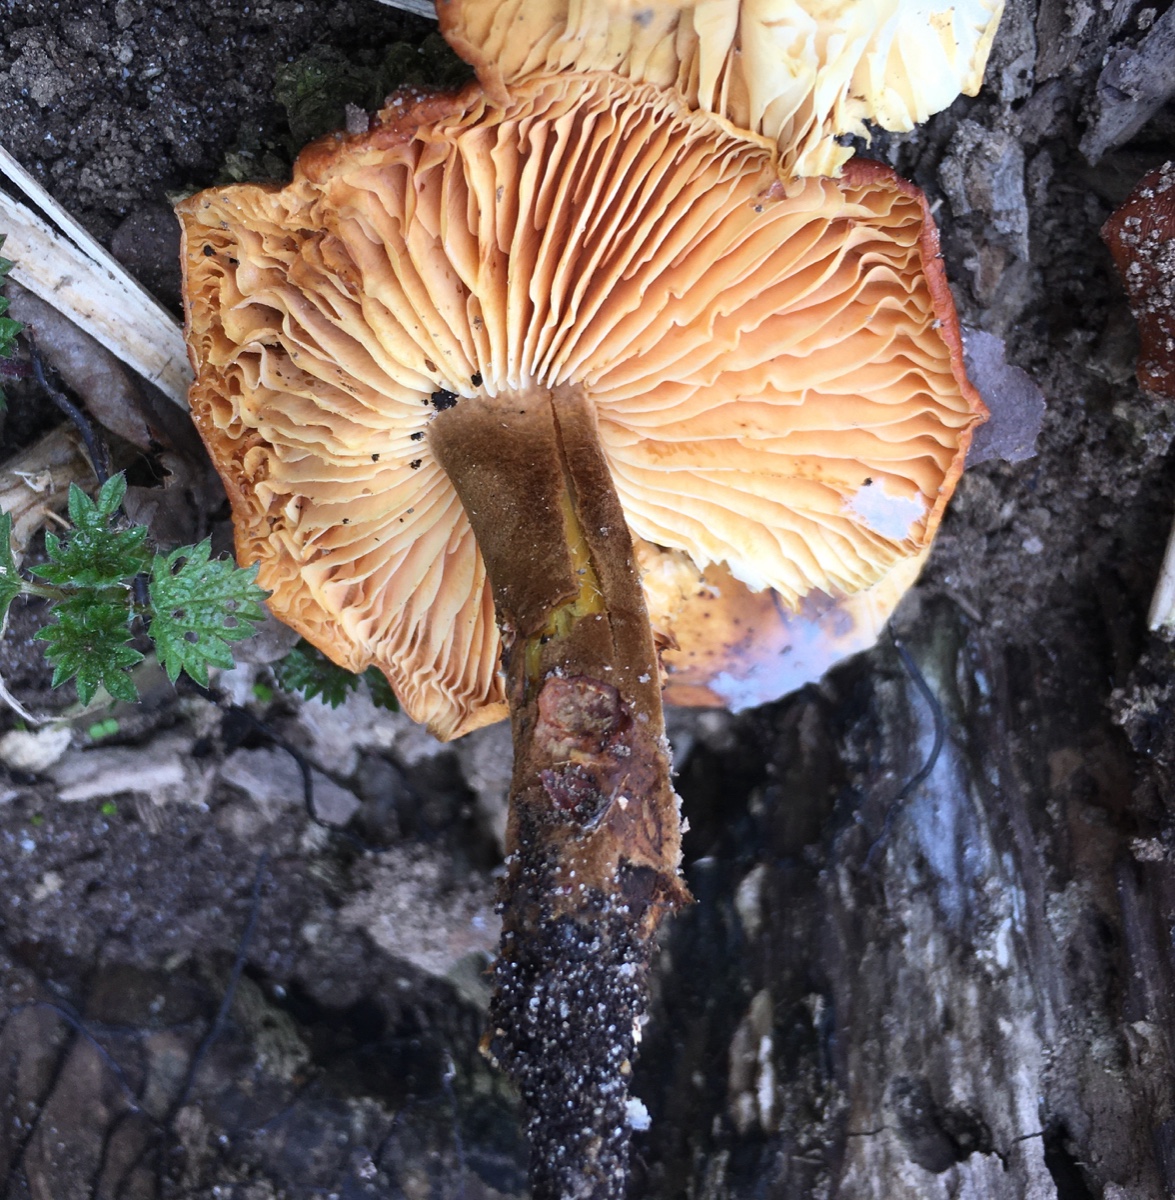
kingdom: Fungi
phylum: Basidiomycota
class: Agaricomycetes
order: Agaricales
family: Physalacriaceae
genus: Flammulina
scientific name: Flammulina velutipes
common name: gul fløjlsfod
